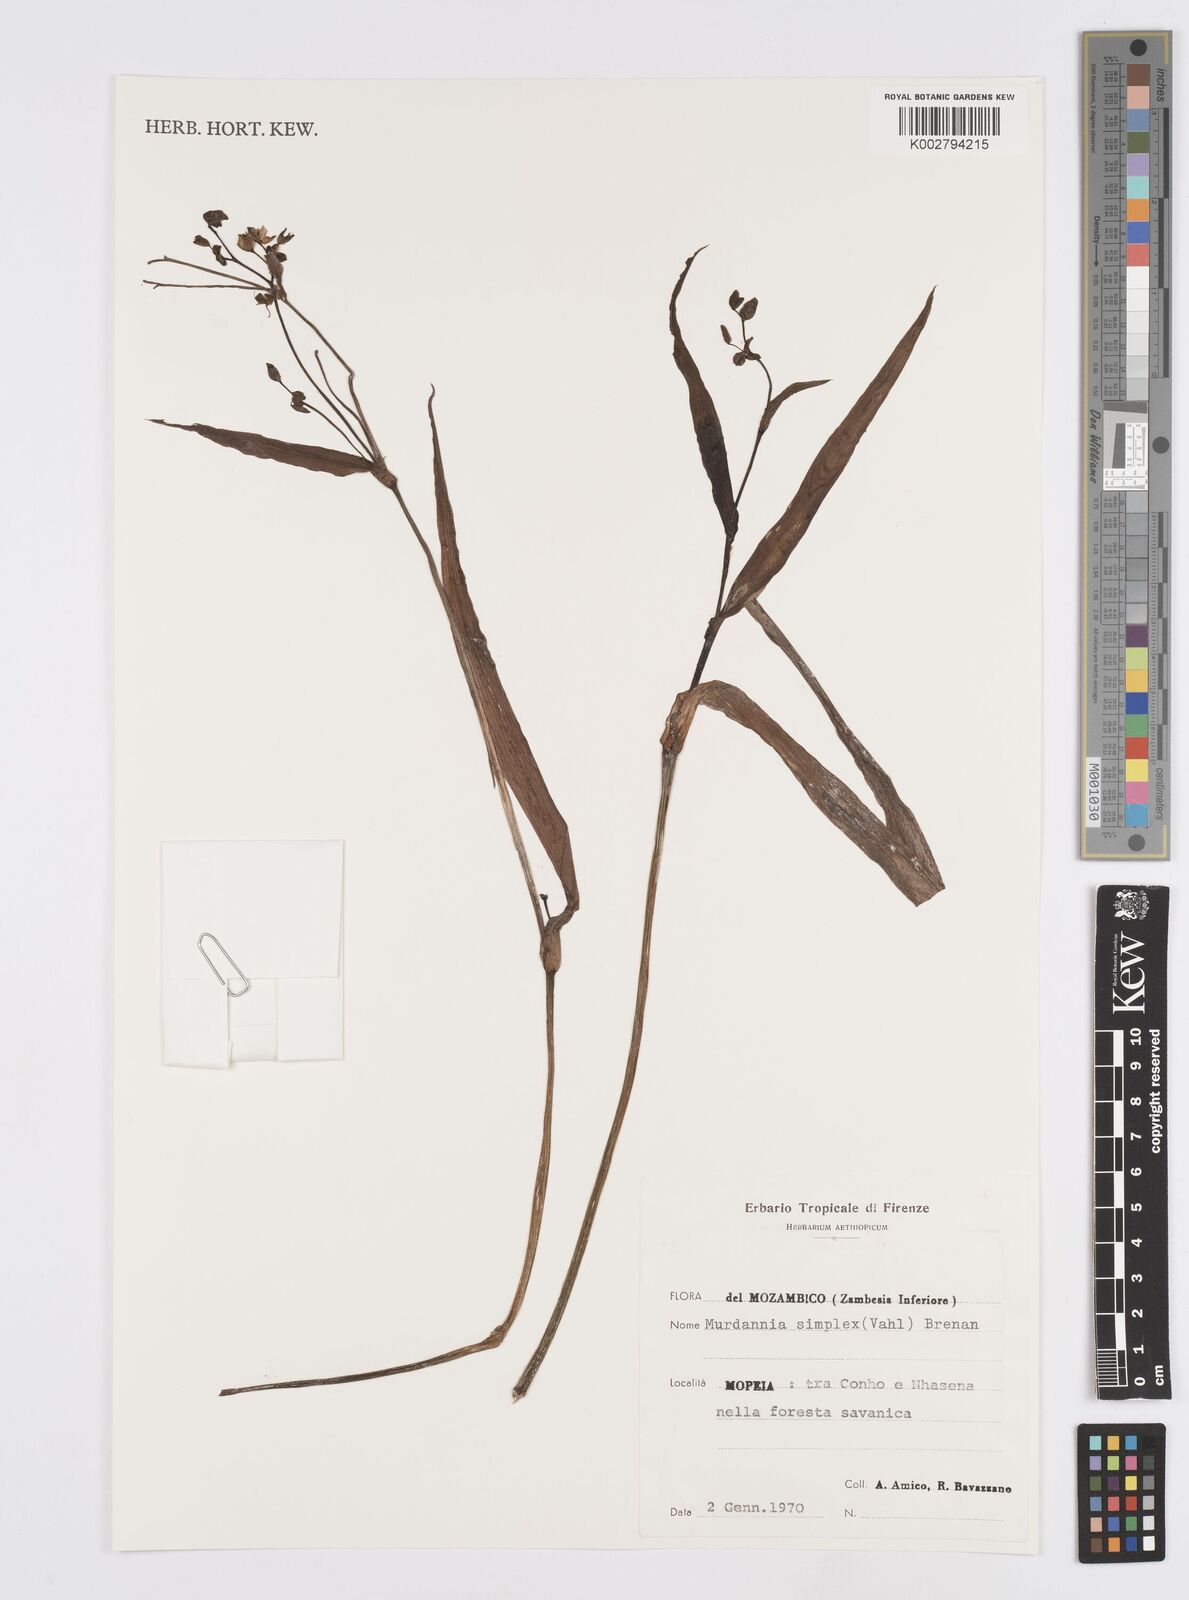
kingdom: Plantae
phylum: Tracheophyta
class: Liliopsida
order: Commelinales
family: Commelinaceae
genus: Murdannia
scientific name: Murdannia simplex
